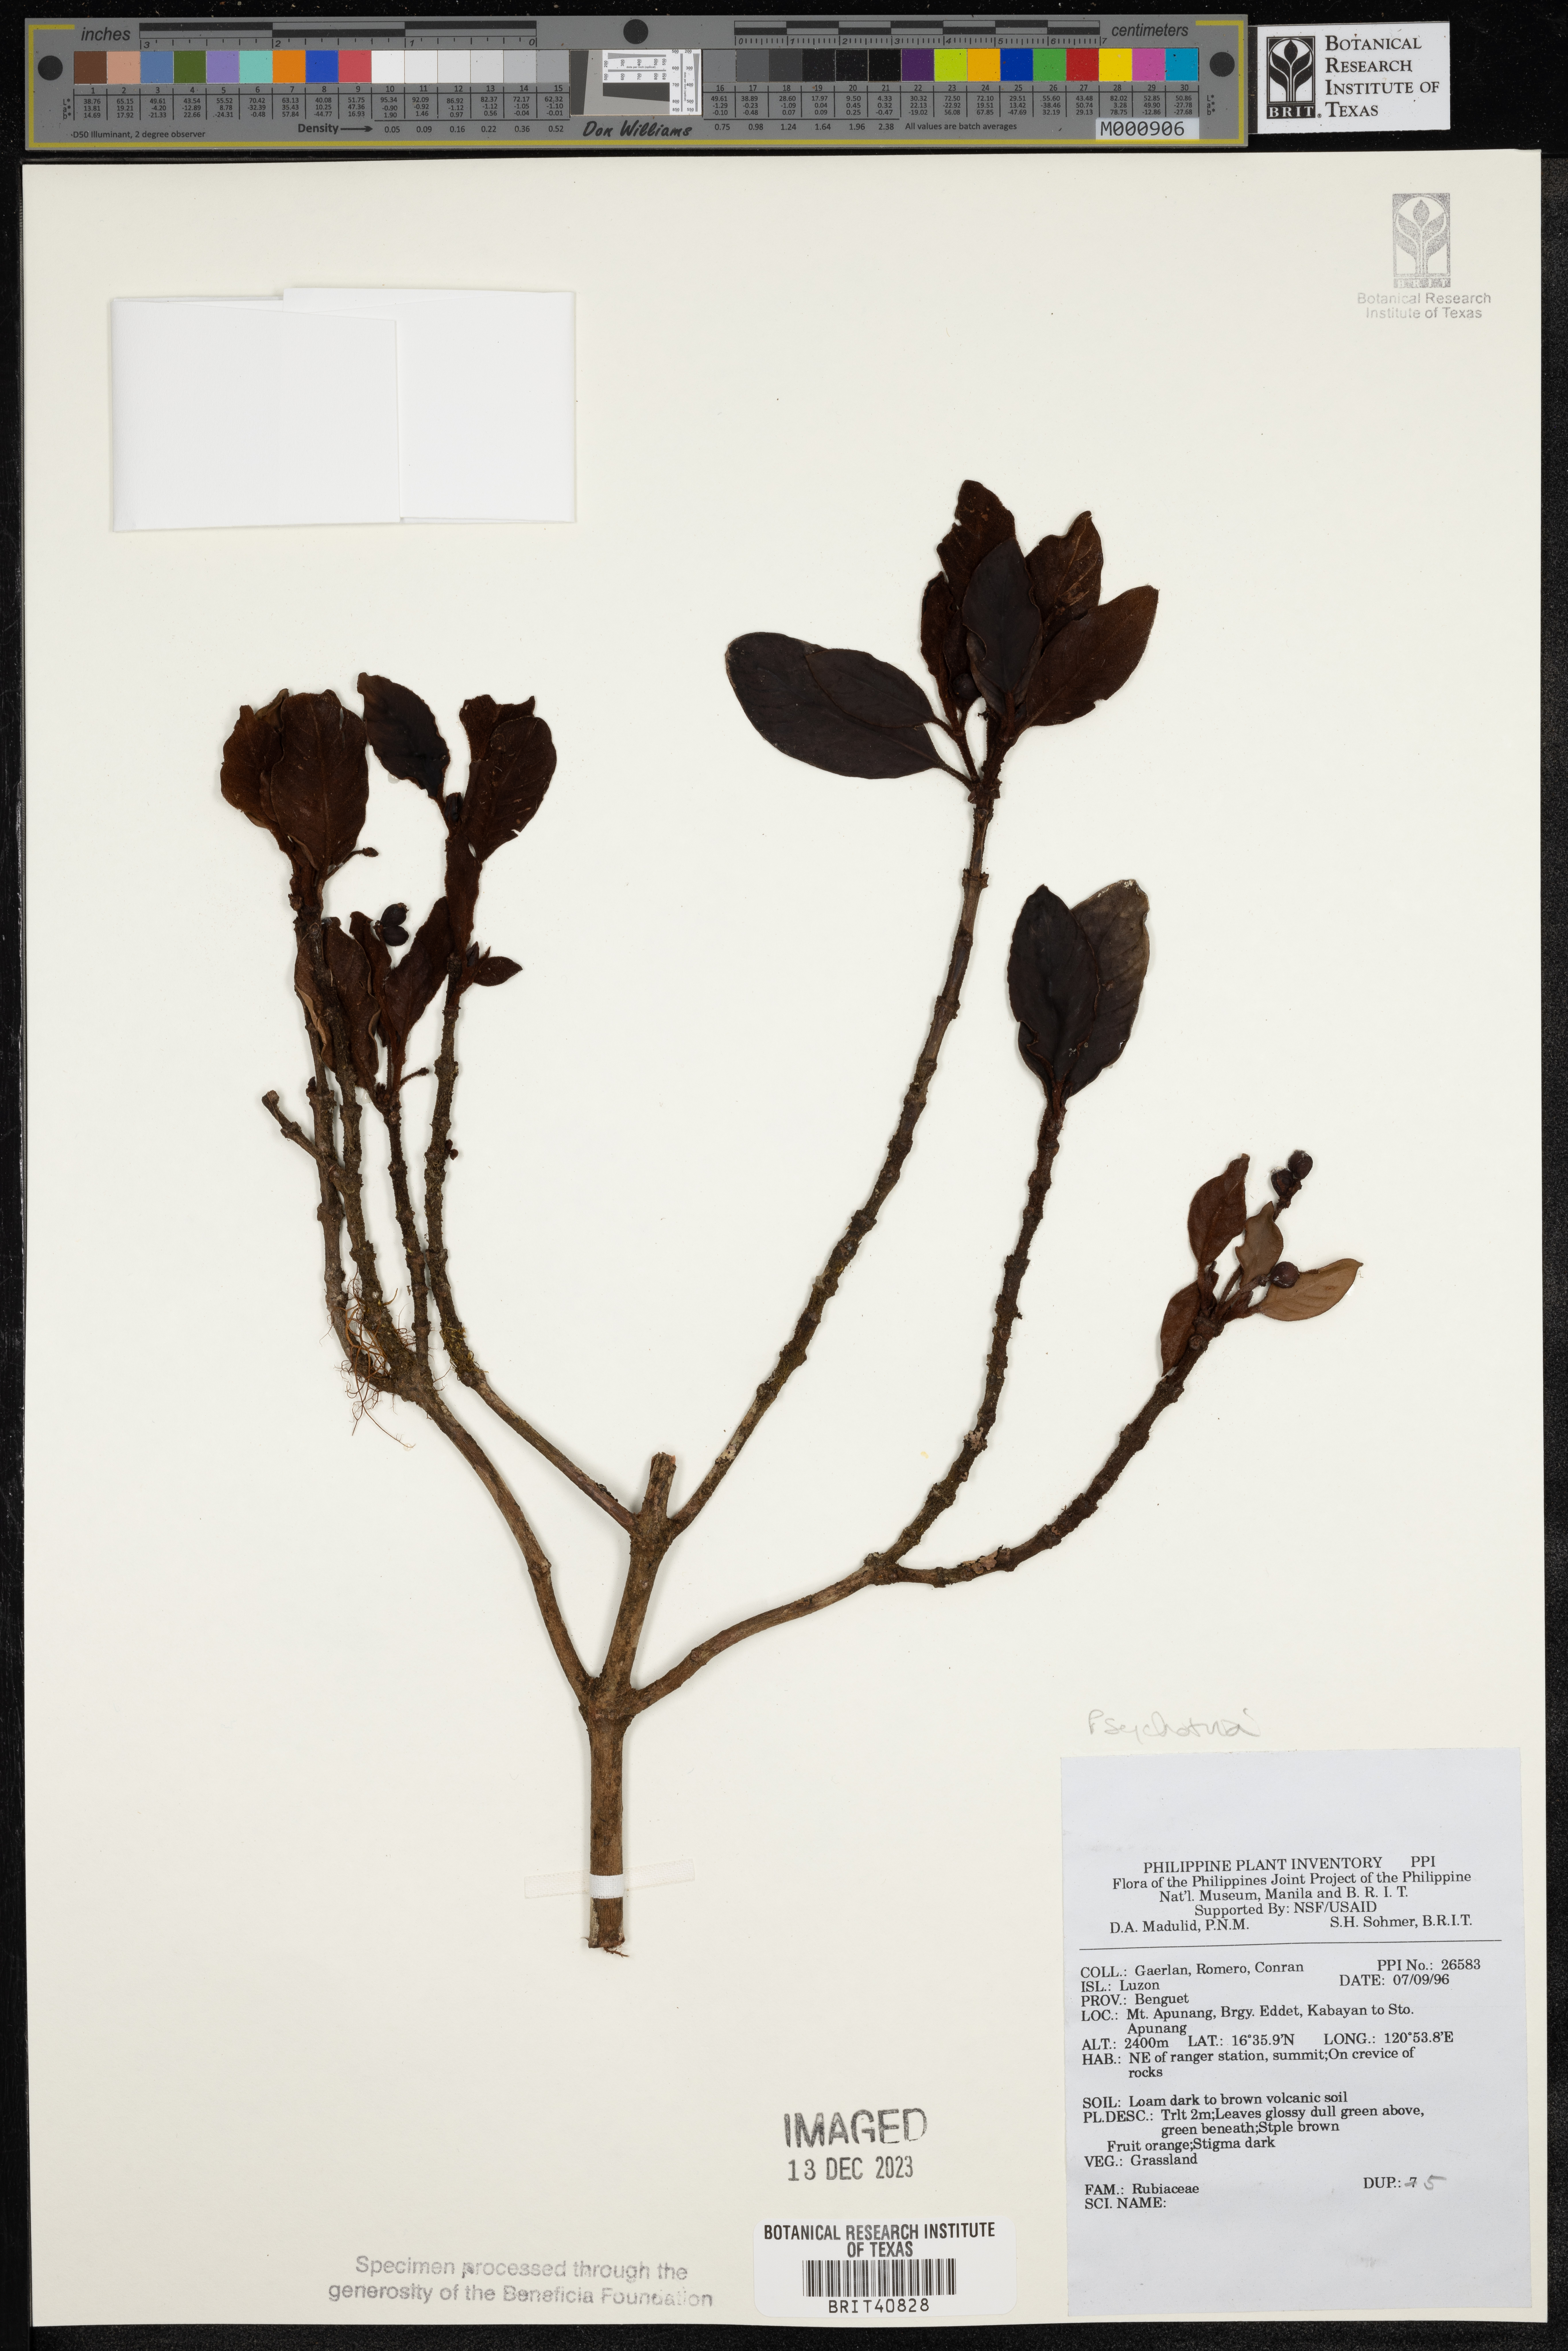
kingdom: Plantae
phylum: Tracheophyta
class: Magnoliopsida
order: Gentianales
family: Rubiaceae
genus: Psychotria
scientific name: Psychotria
